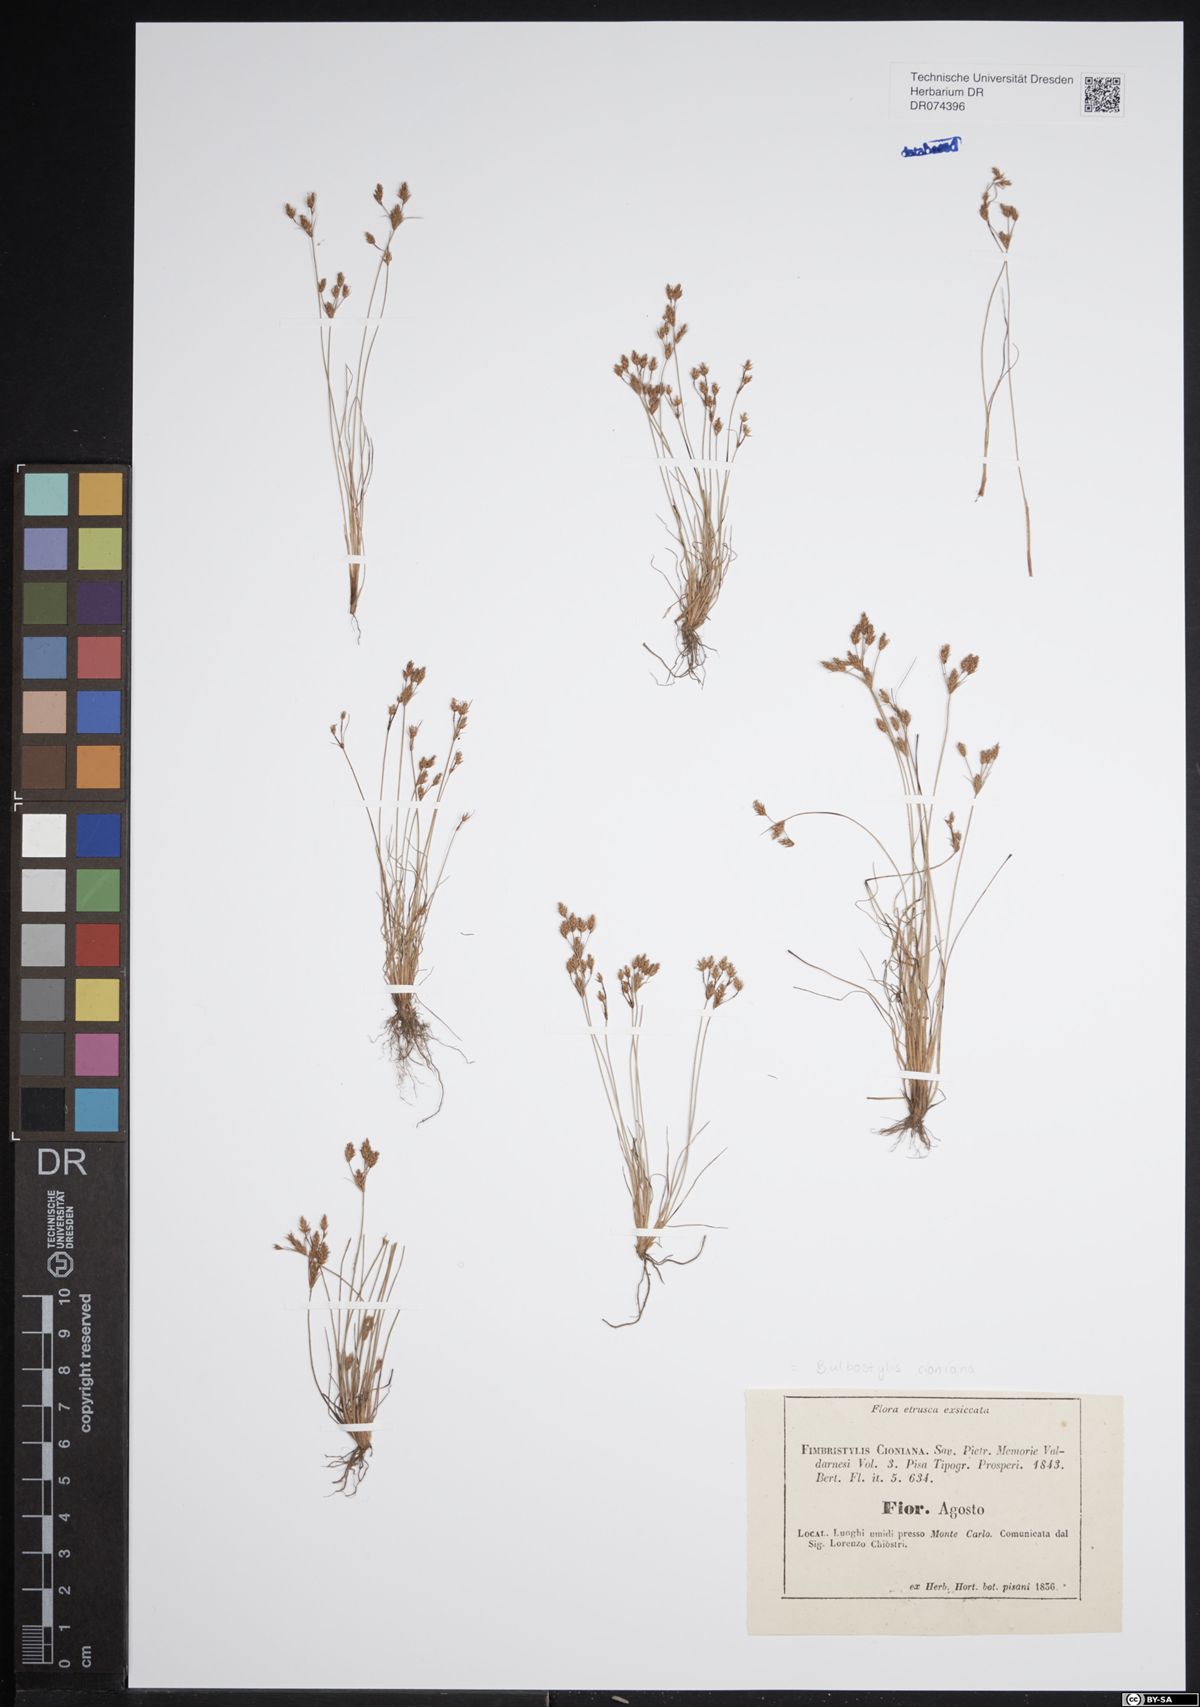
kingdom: Plantae
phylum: Tracheophyta
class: Liliopsida
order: Poales
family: Cyperaceae
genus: Bulbostylis
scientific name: Bulbostylis cioniana
